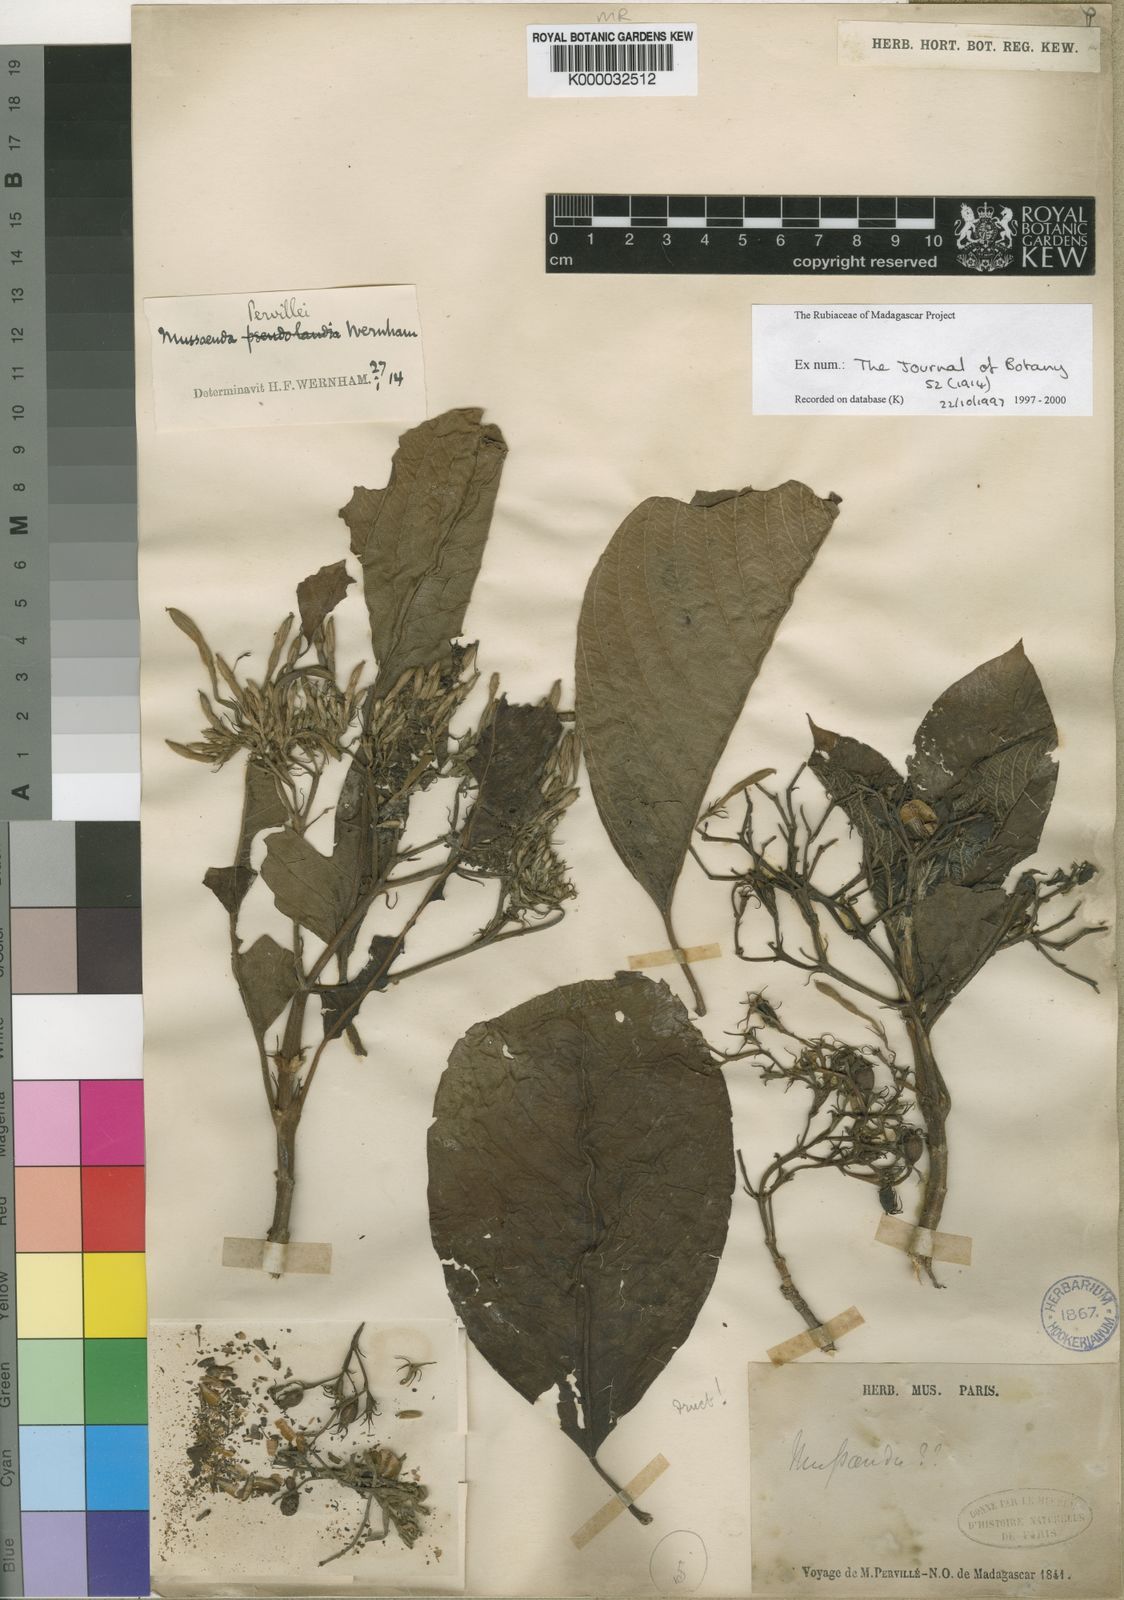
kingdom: Plantae
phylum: Tracheophyta
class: Magnoliopsida
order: Gentianales
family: Rubiaceae
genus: Bremeria
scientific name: Bremeria pervillei
